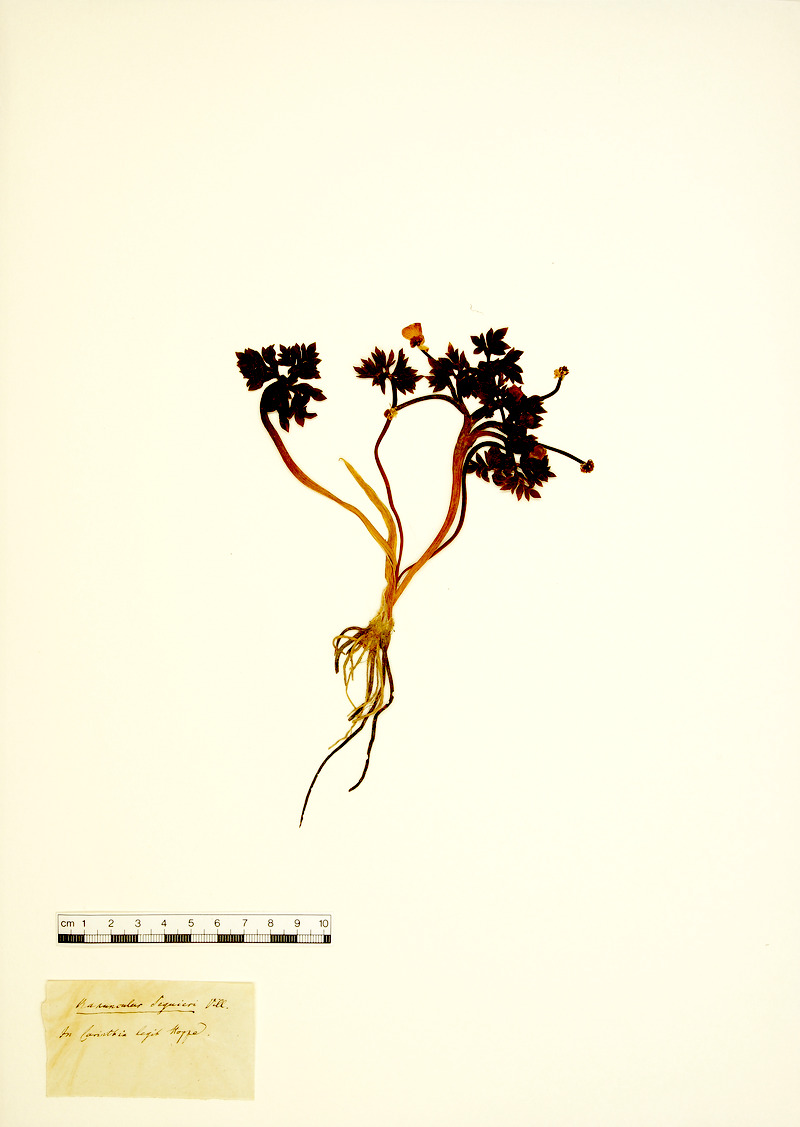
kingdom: Plantae
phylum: Tracheophyta
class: Magnoliopsida
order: Ranunculales
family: Ranunculaceae
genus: Ranunculus
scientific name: Ranunculus seguieri
